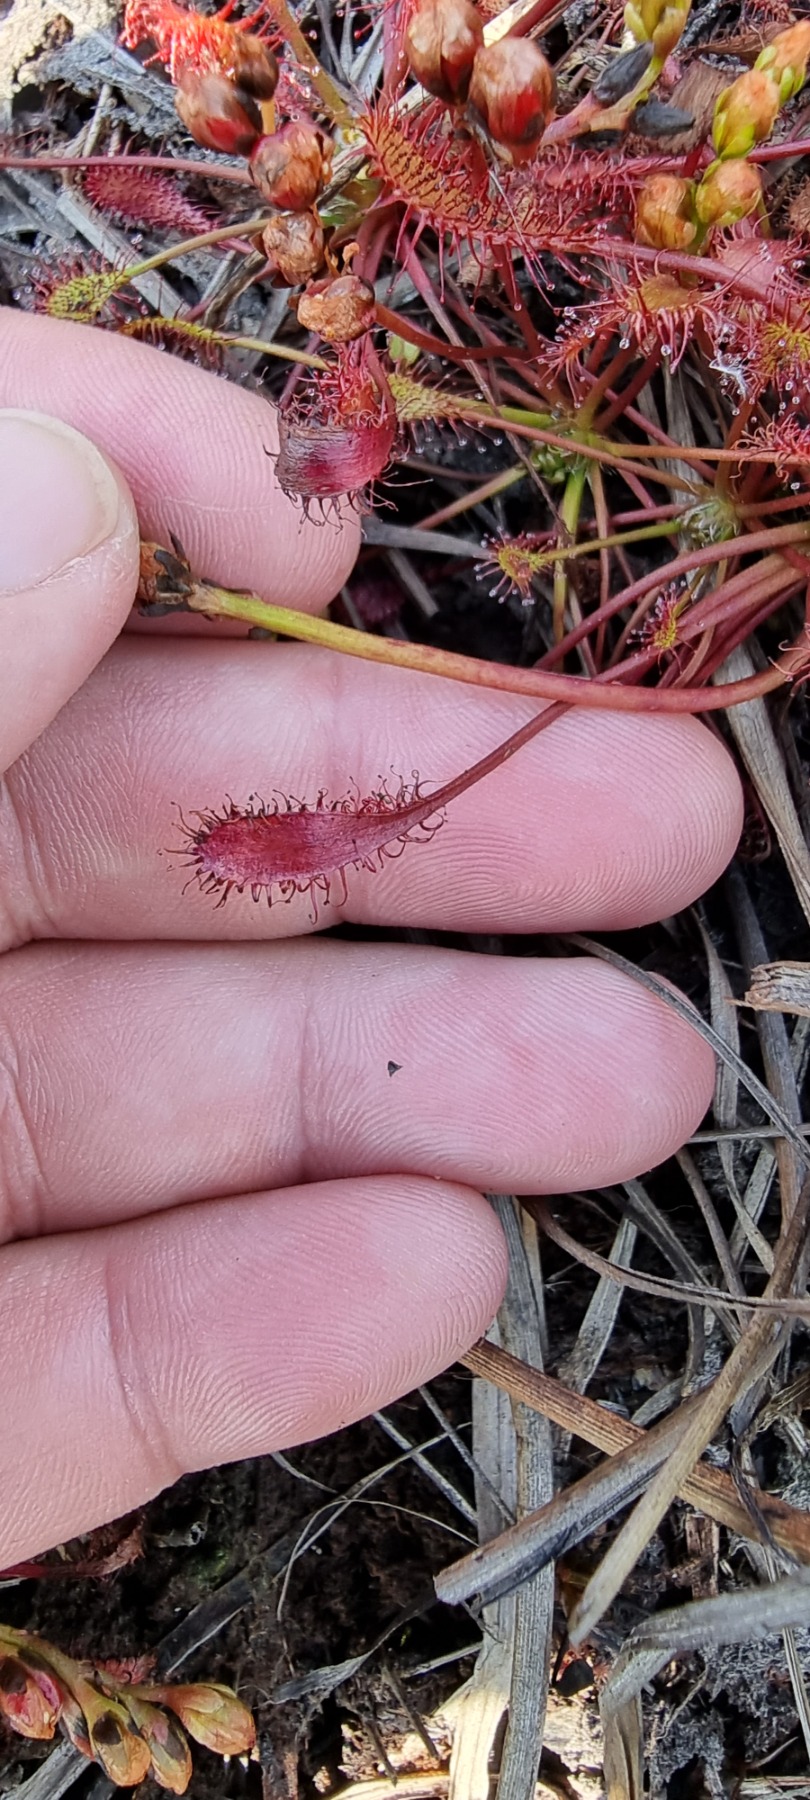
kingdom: Plantae
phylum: Tracheophyta
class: Magnoliopsida
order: Caryophyllales
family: Droseraceae
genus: Drosera
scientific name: Drosera anglica
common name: Langbladet soldug
